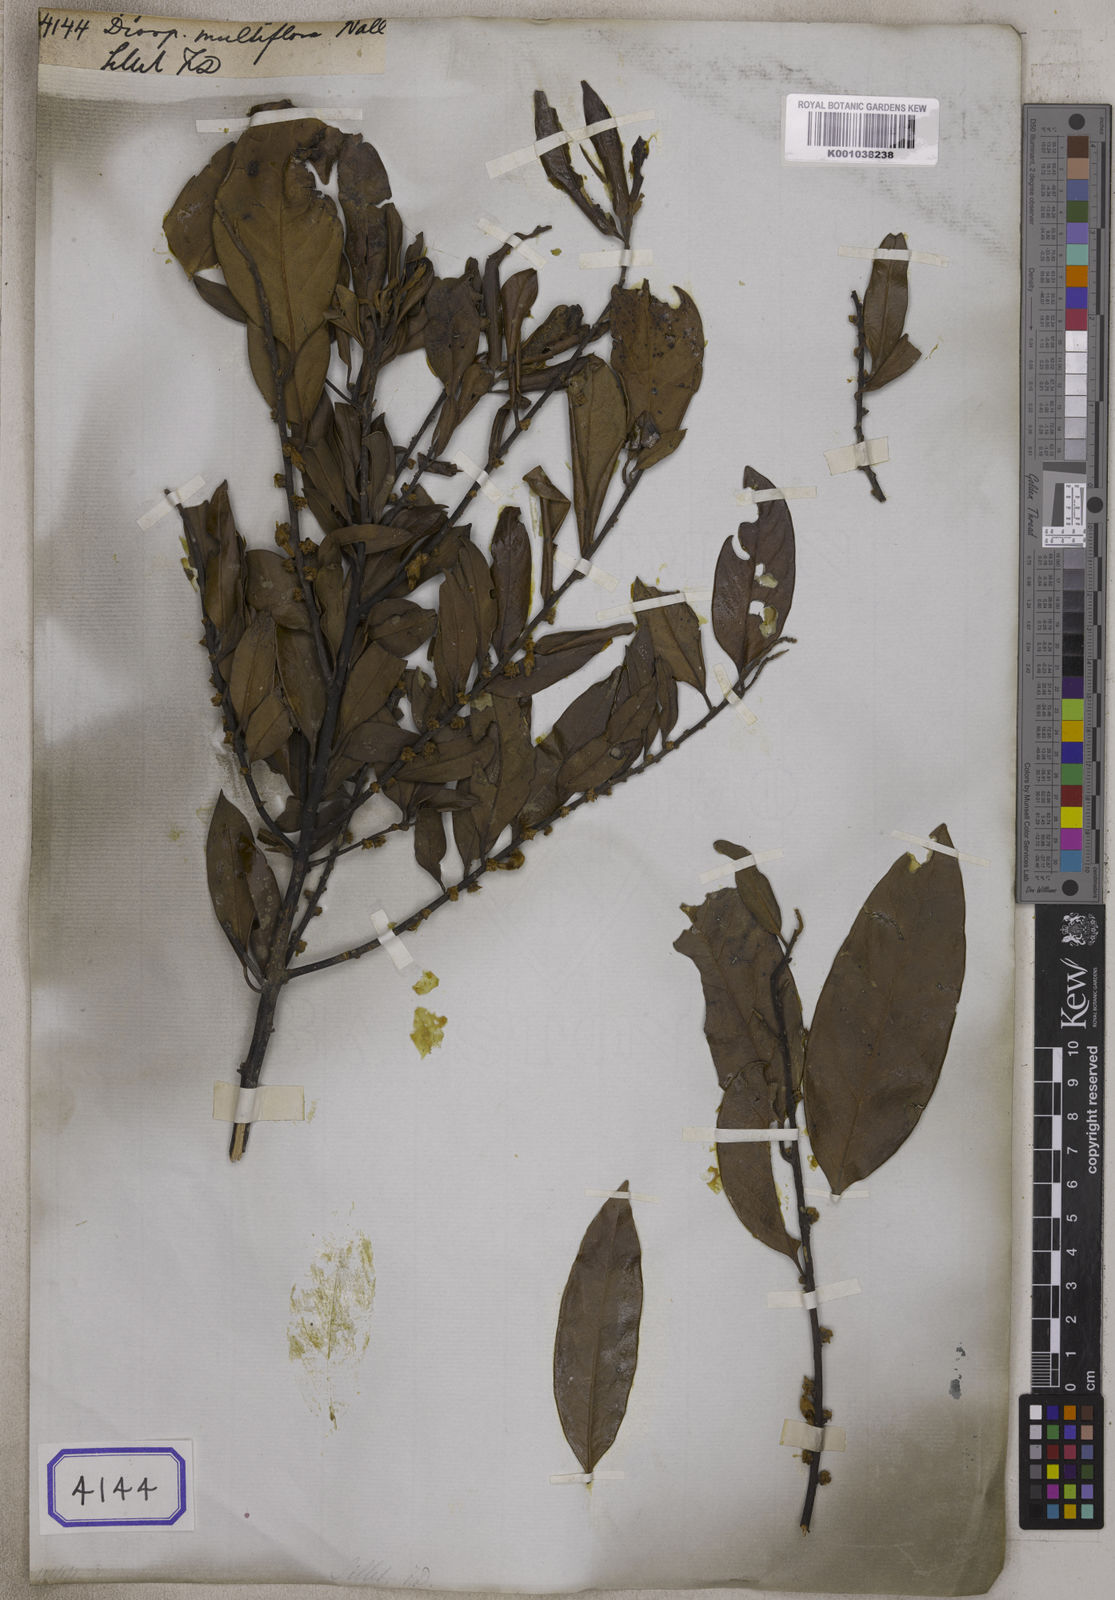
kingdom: Plantae
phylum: Tracheophyta
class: Magnoliopsida
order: Ericales
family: Ebenaceae
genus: Diospyros
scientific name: Diospyros
